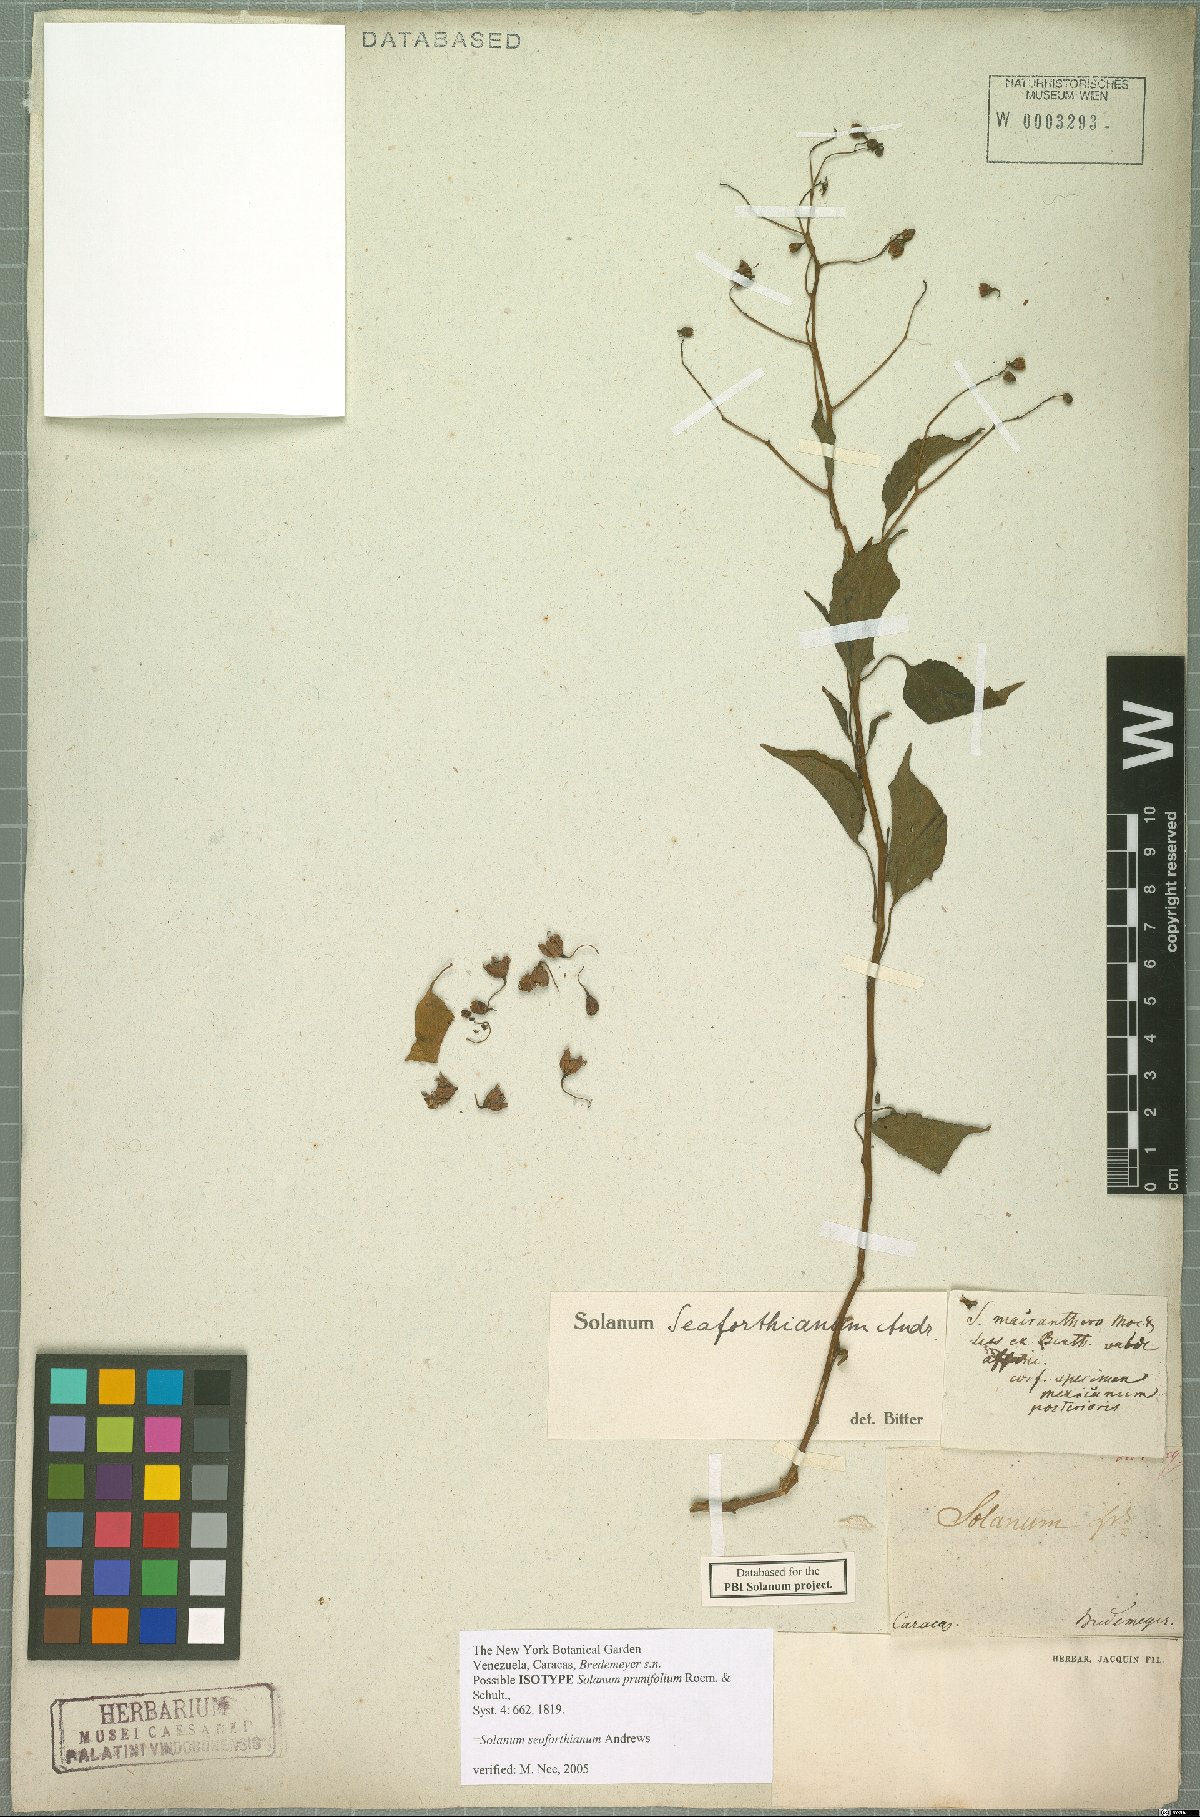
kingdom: Plantae
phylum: Tracheophyta
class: Magnoliopsida
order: Solanales
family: Solanaceae
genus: Solanum
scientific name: Solanum seaforthianum
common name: Brazilian nightshade
